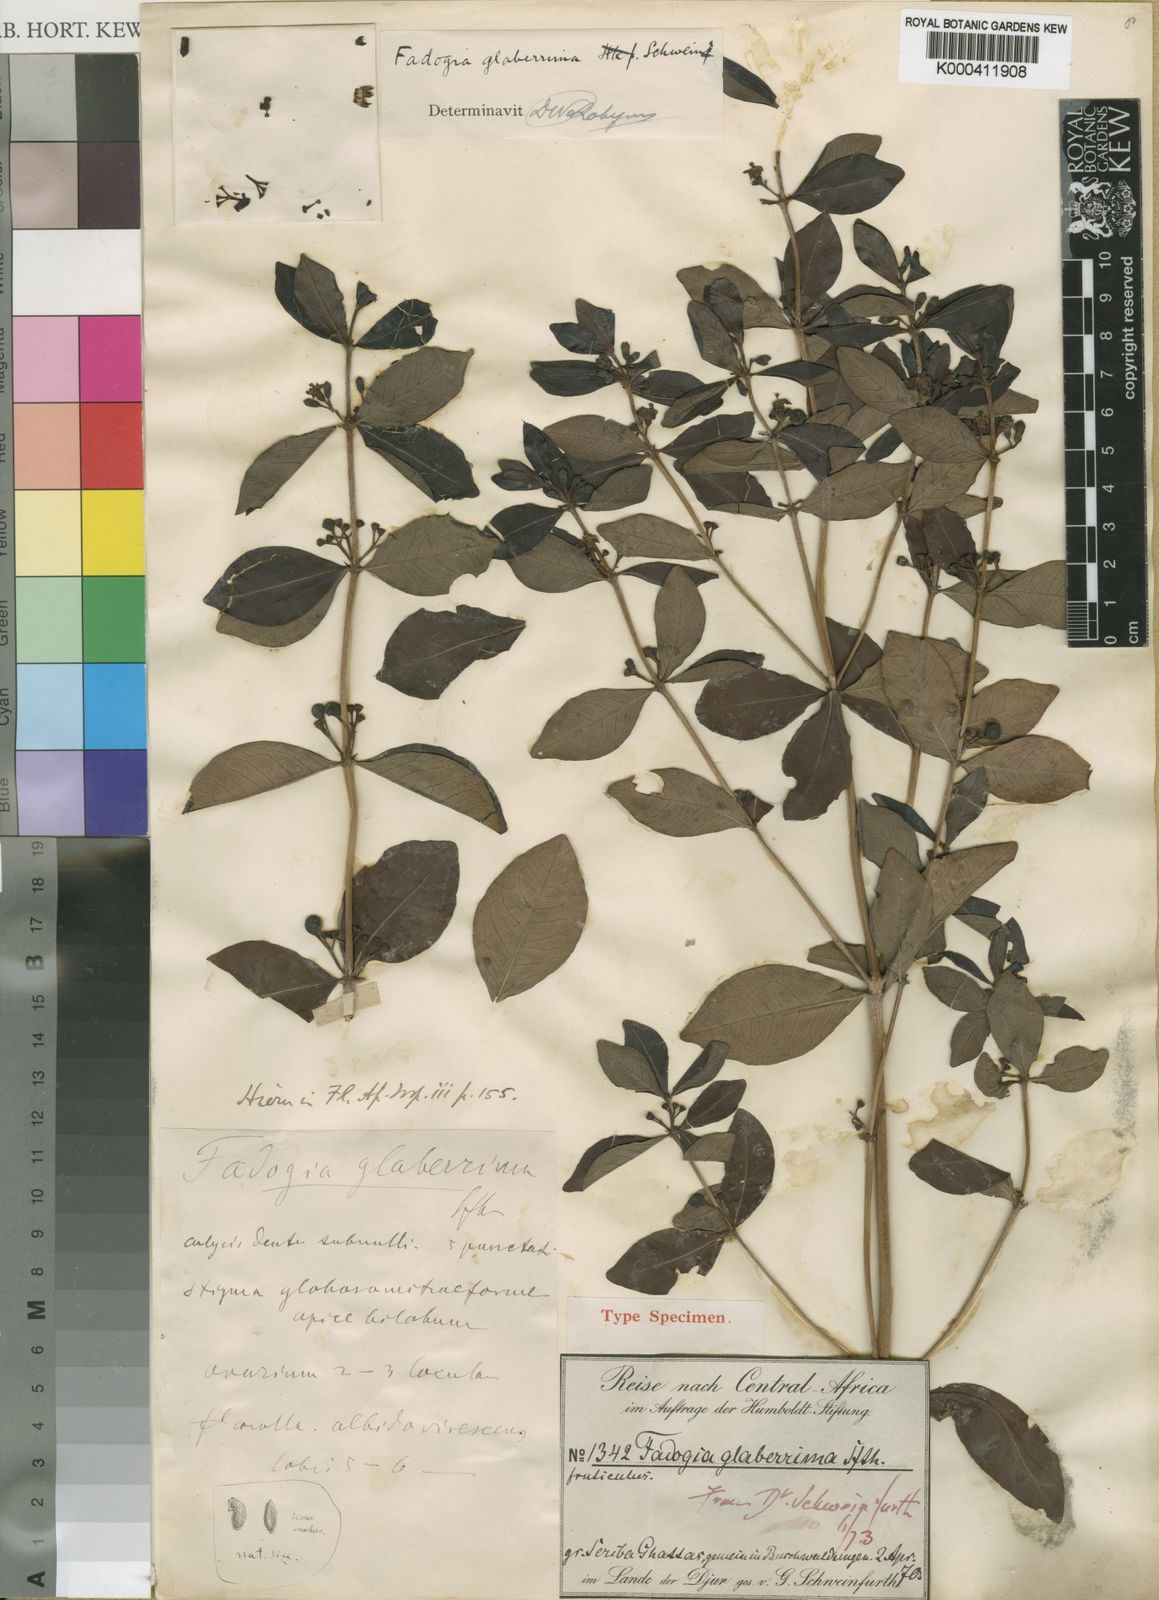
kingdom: Plantae
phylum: Tracheophyta
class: Magnoliopsida
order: Gentianales
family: Rubiaceae
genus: Fadogia
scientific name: Fadogia glaberrima
